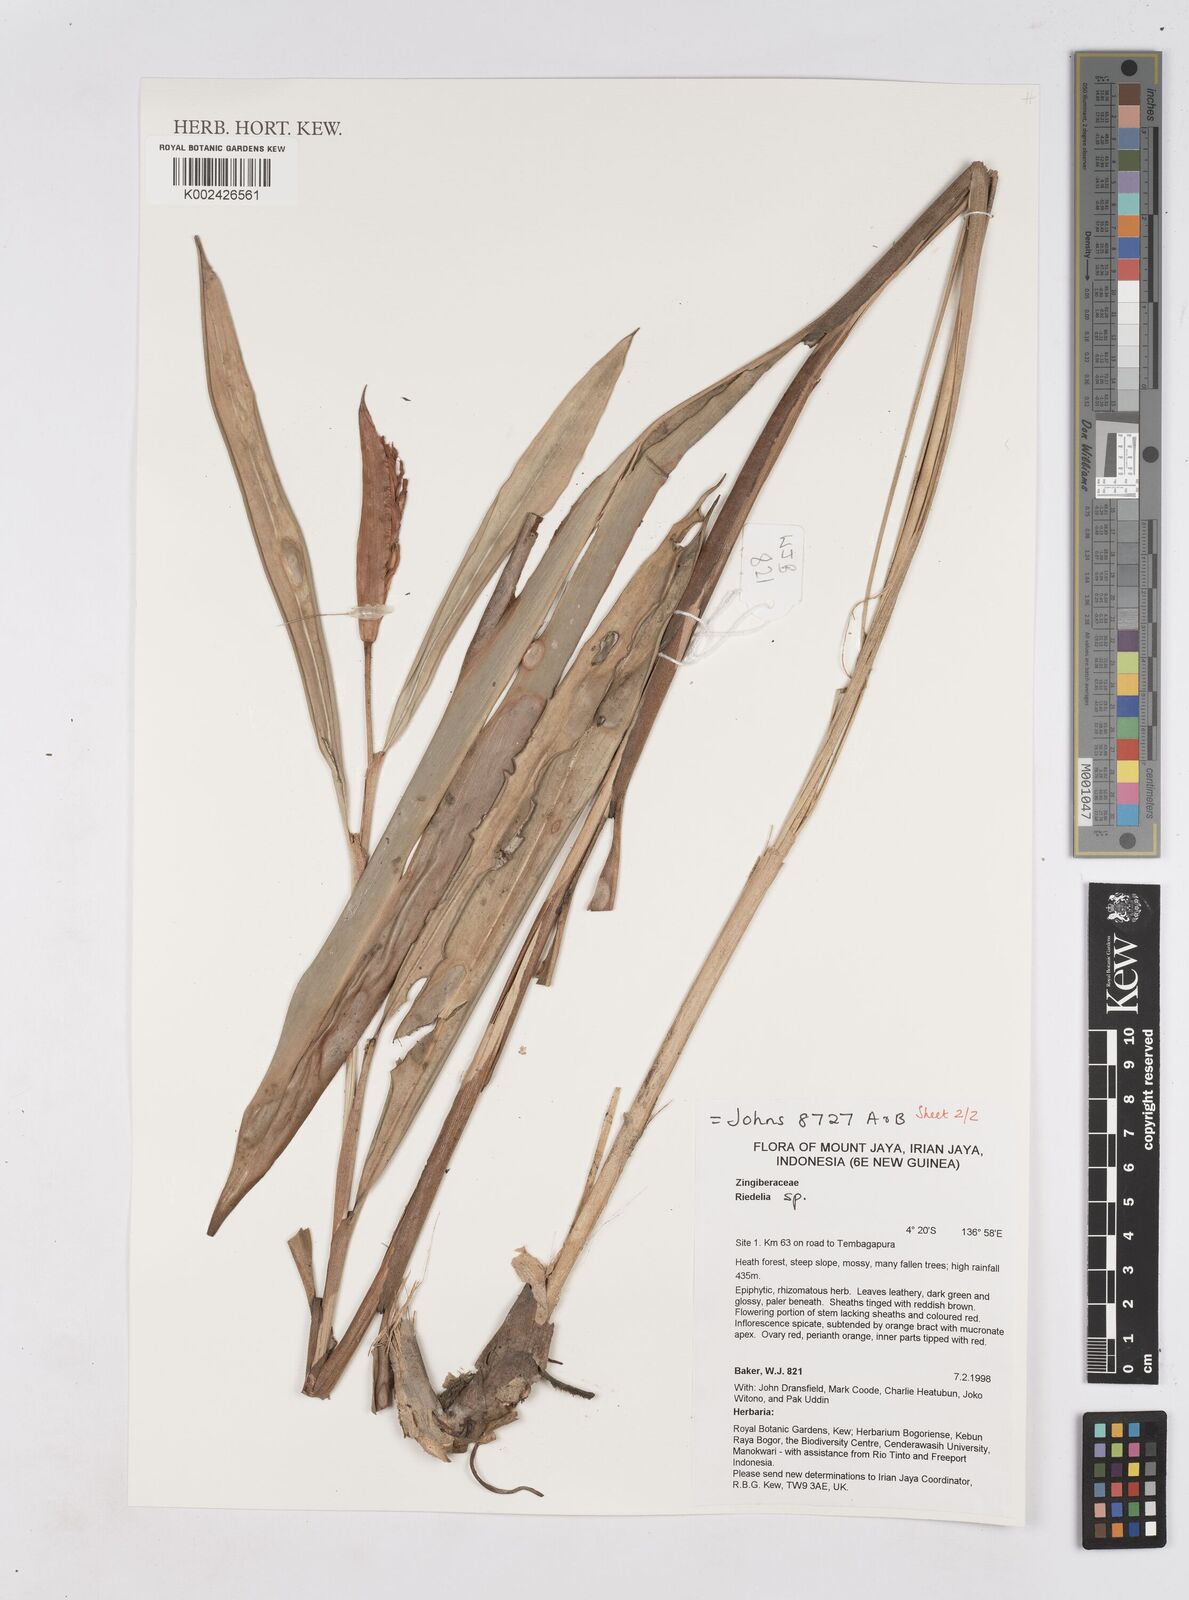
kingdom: Plantae
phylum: Tracheophyta
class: Liliopsida
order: Zingiberales
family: Zingiberaceae
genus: Riedelia
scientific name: Riedelia
